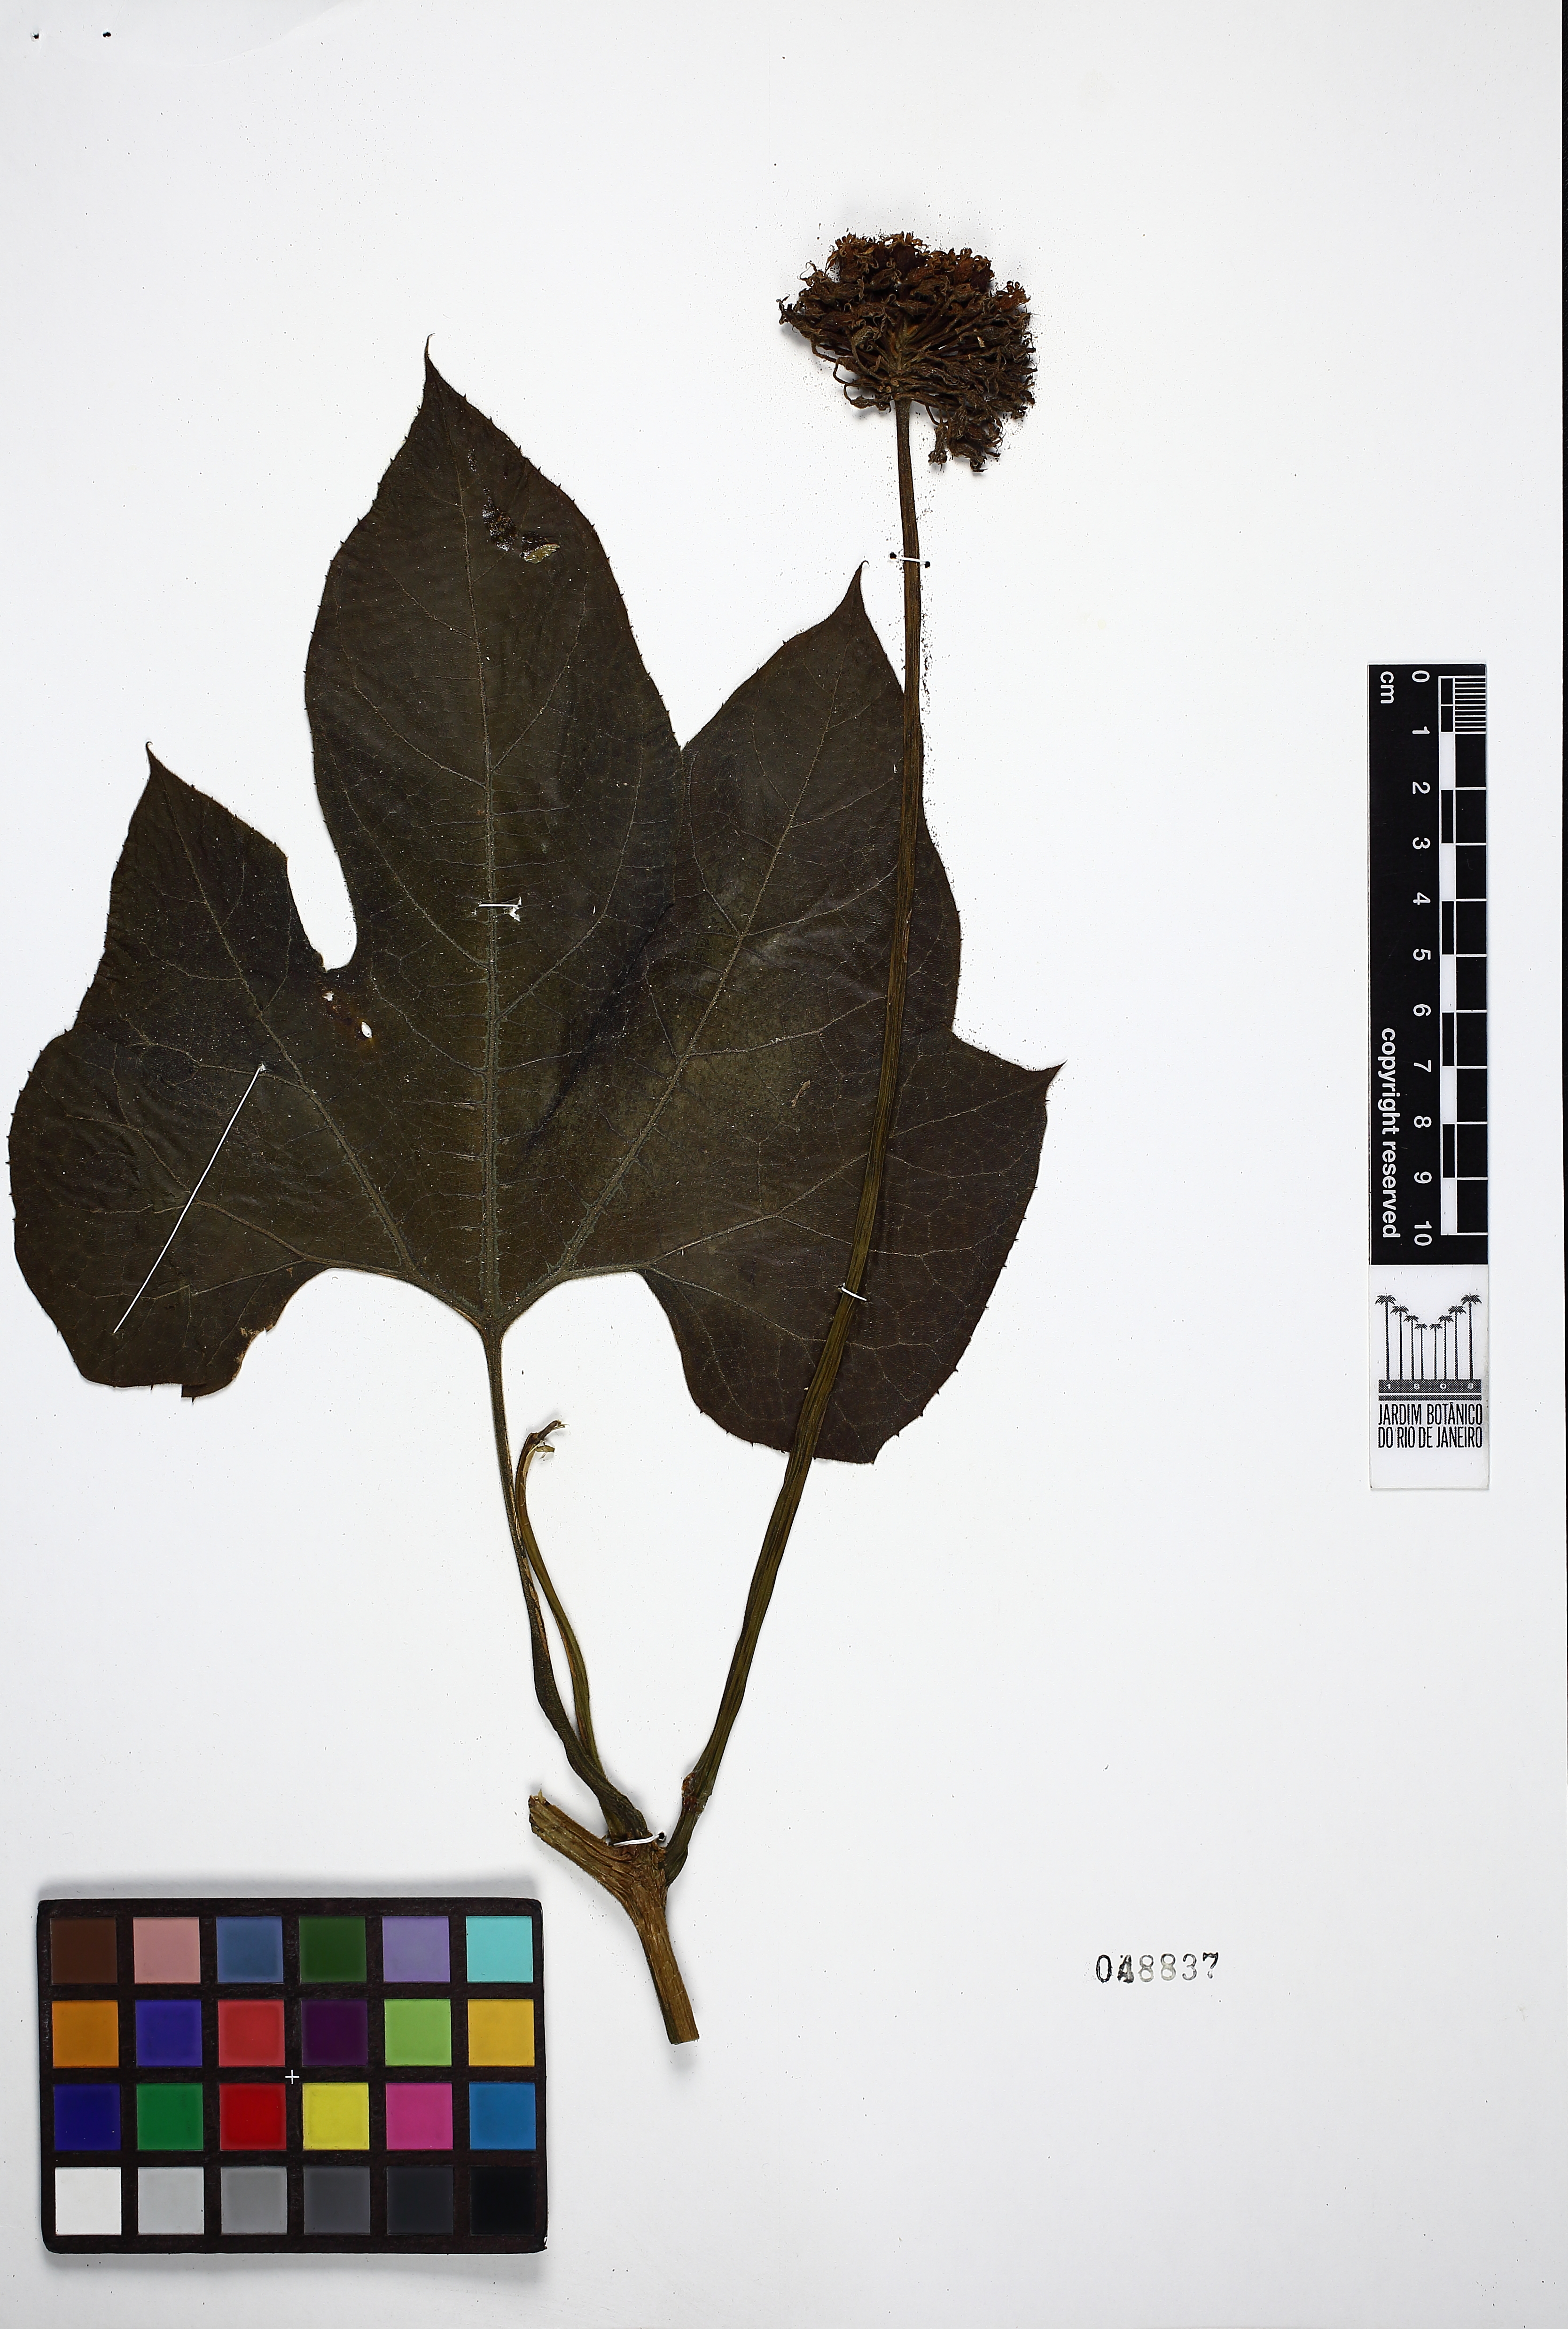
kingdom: Plantae
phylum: Tracheophyta
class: Magnoliopsida
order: Cucurbitales
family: Cucurbitaceae
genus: Gurania
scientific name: Gurania subumbellata
